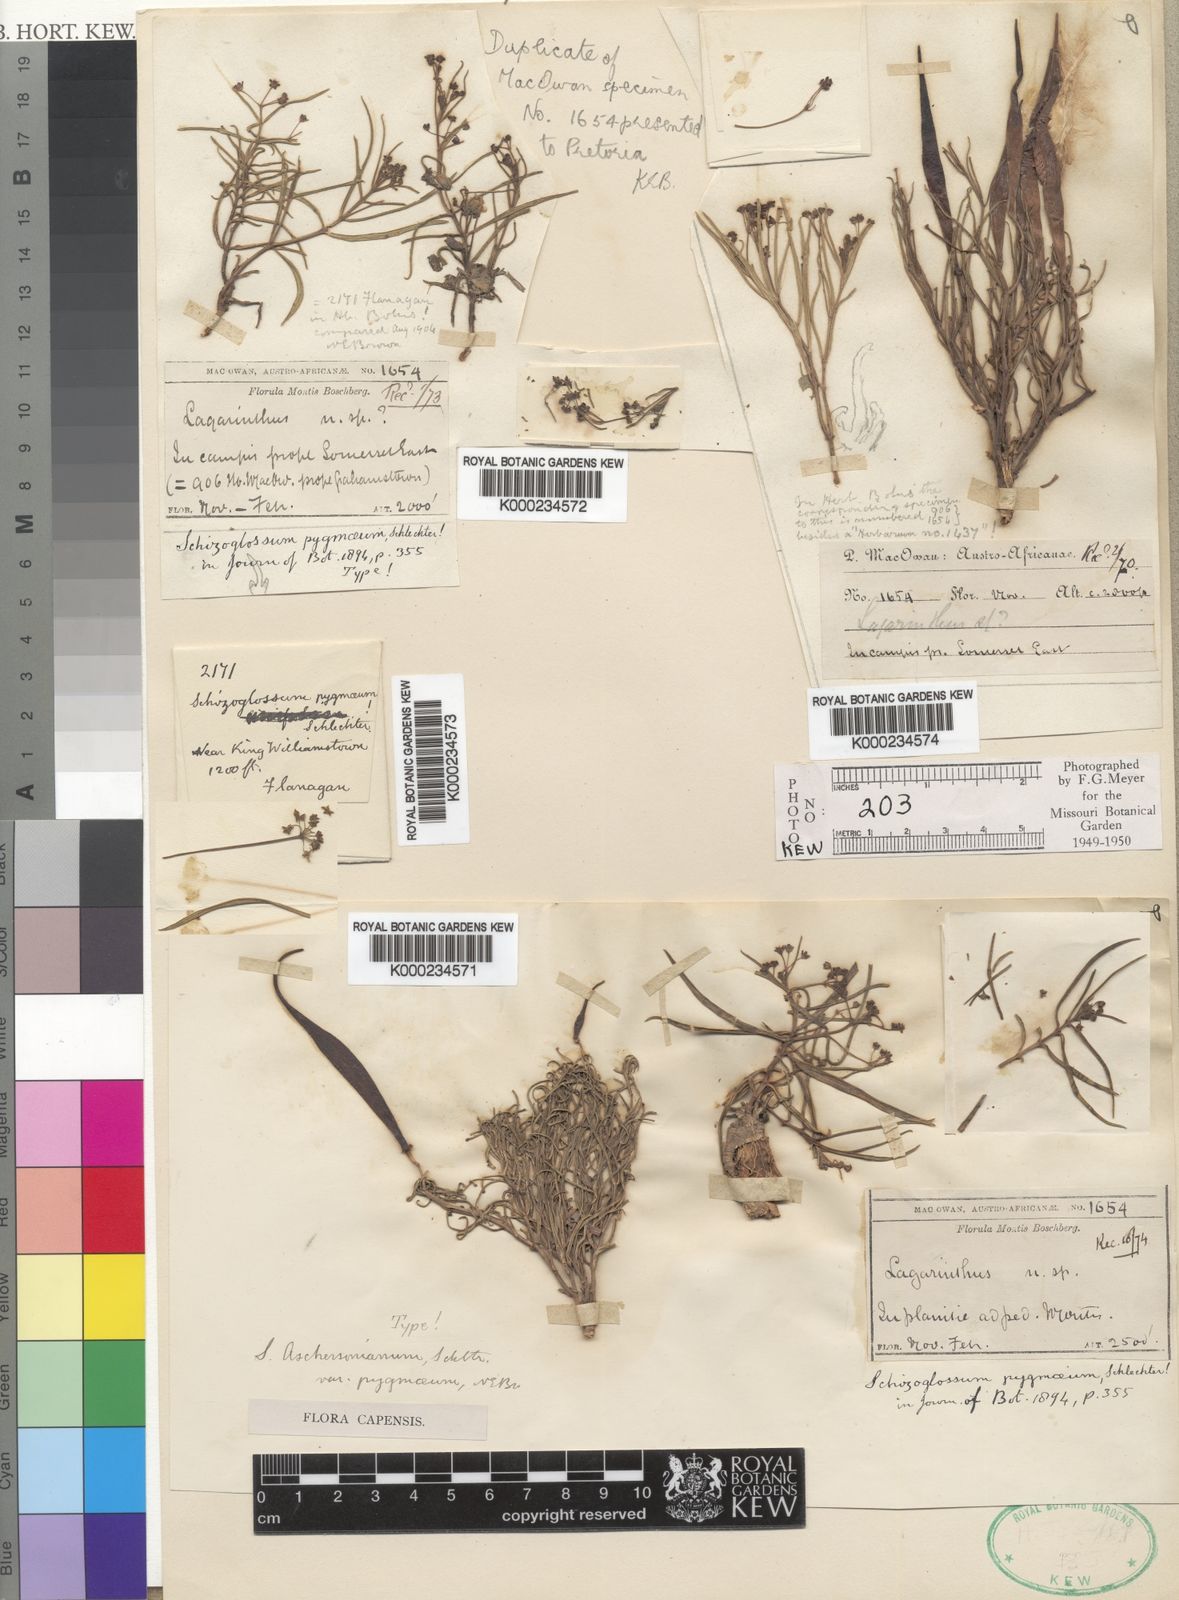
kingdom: Plantae
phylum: Tracheophyta
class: Magnoliopsida
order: Gentianales
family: Apocynaceae
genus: Schizoglossum
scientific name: Schizoglossum aschersonianum
